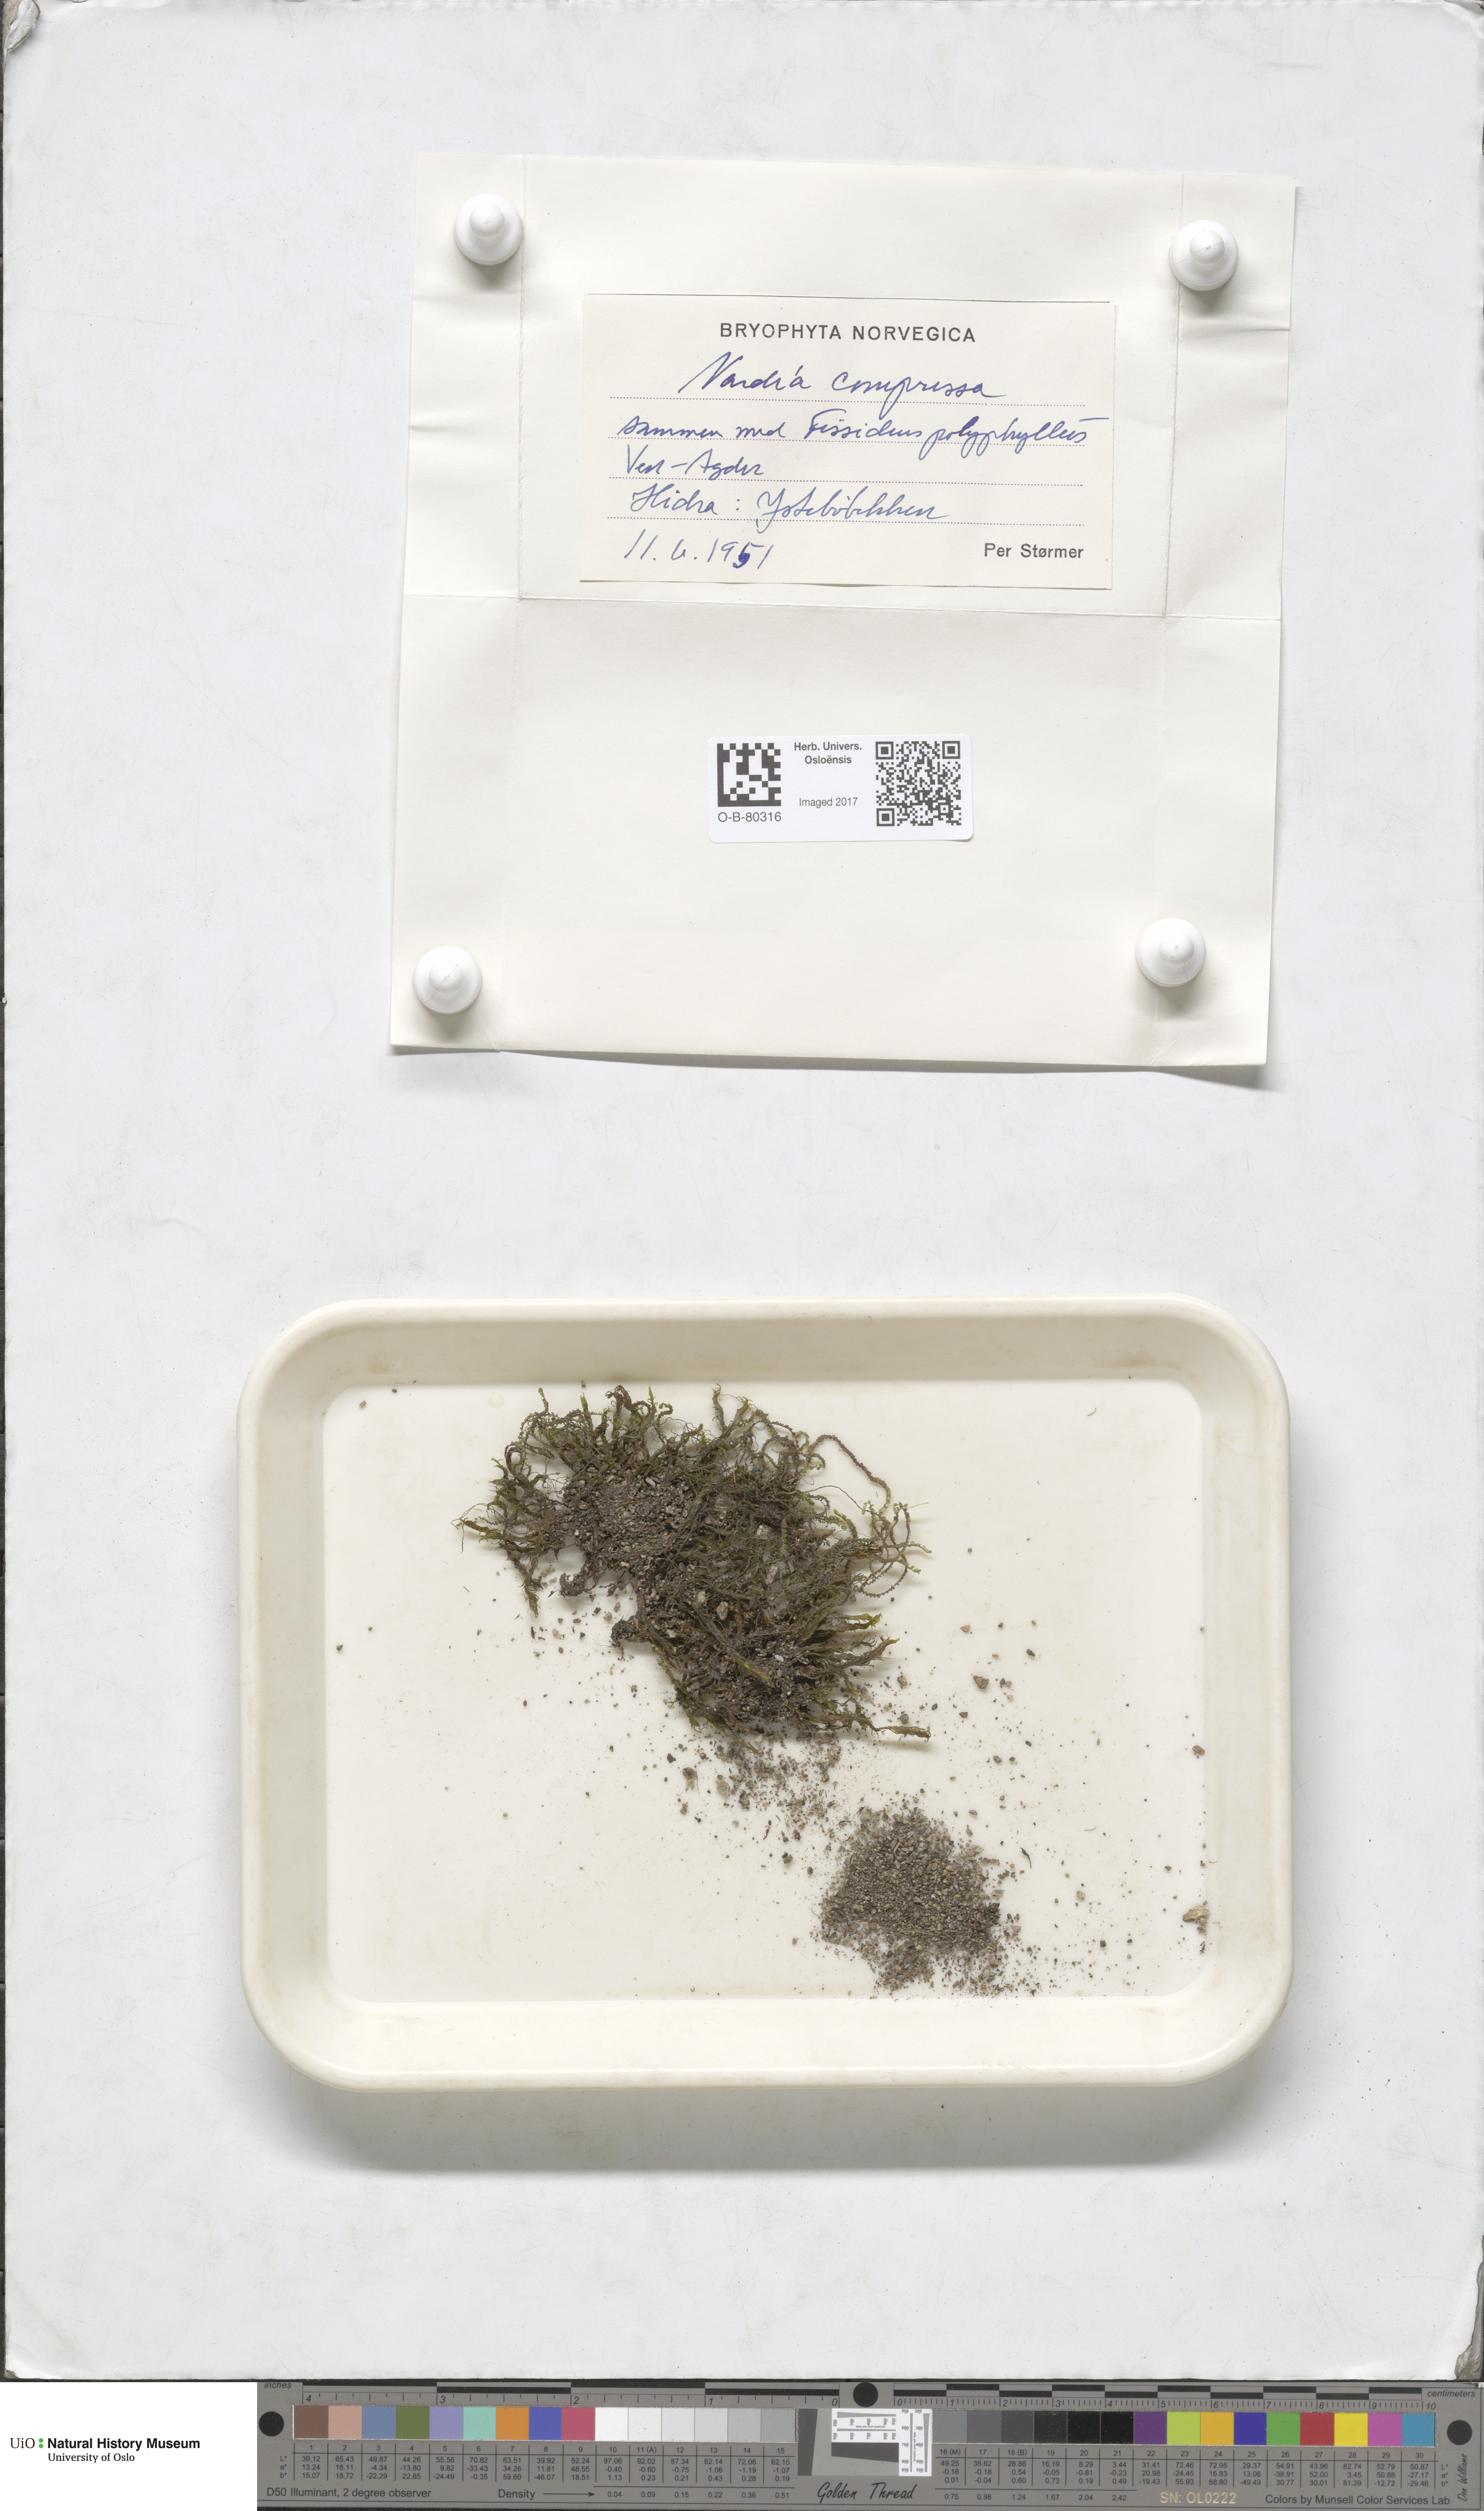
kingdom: Plantae
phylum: Marchantiophyta
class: Jungermanniopsida
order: Jungermanniales
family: Gymnomitriaceae
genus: Nardia
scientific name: Nardia compressa
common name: Compressed flapwort
